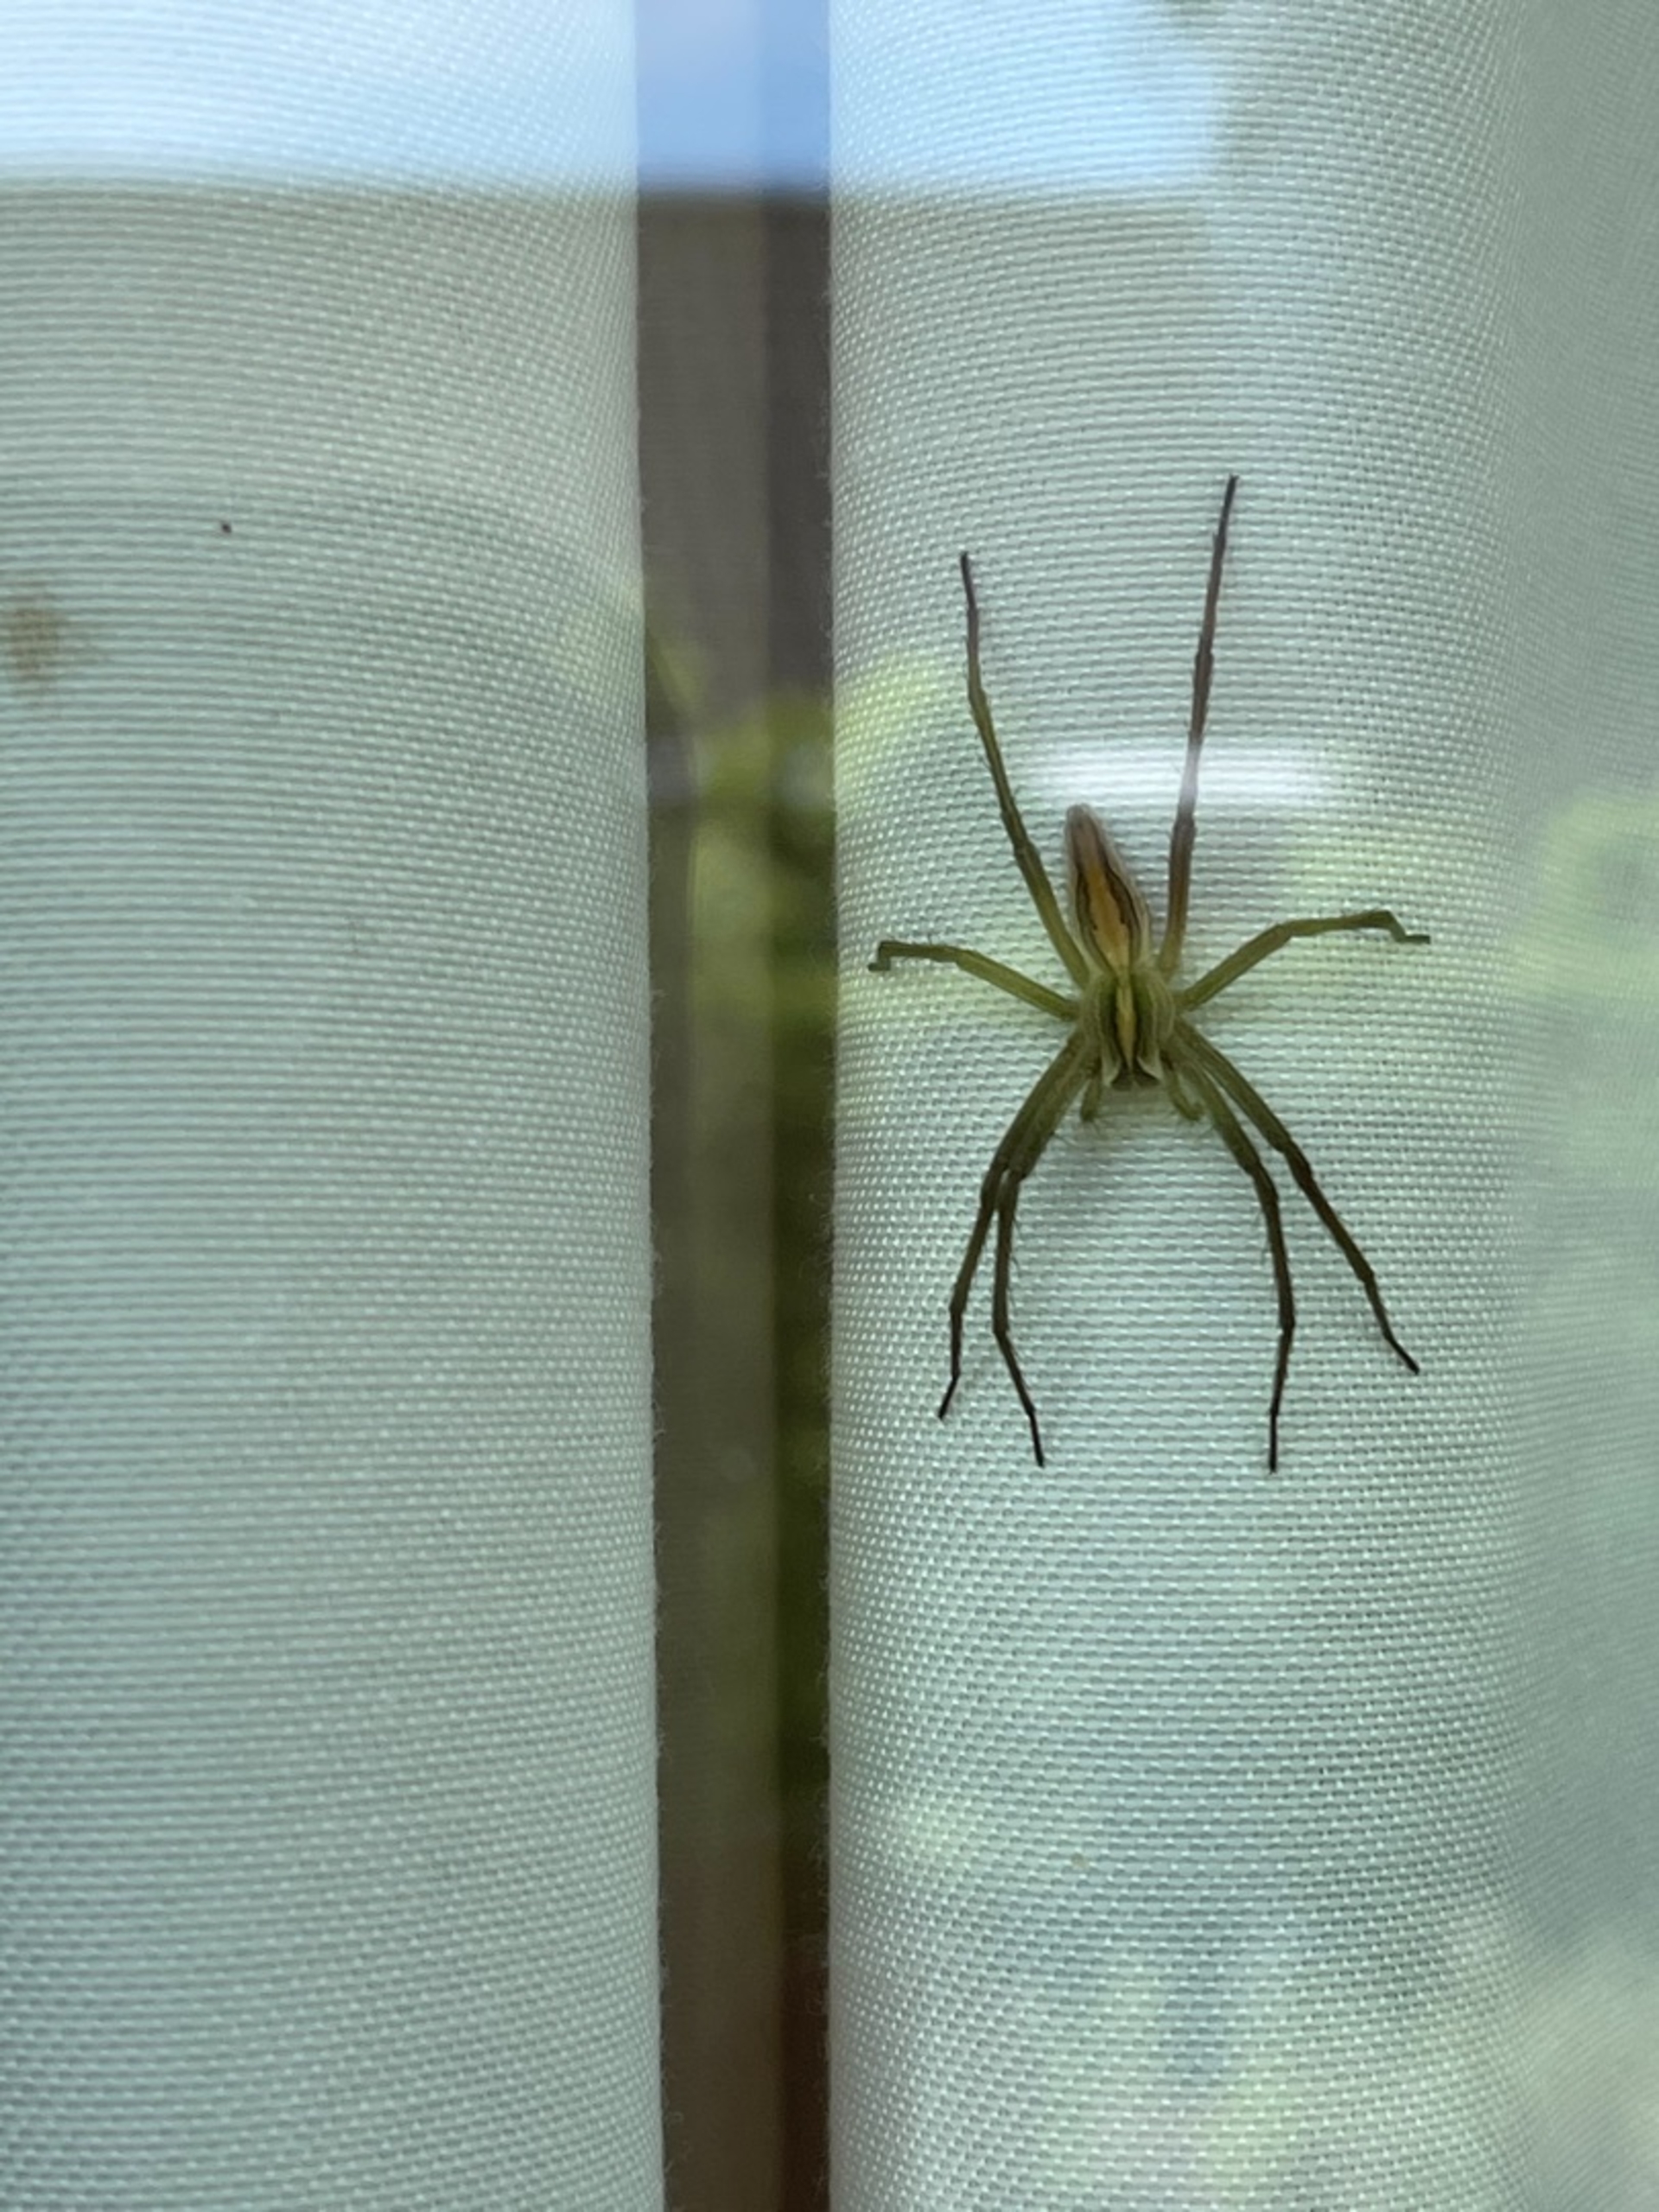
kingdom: Animalia
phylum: Arthropoda
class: Arachnida
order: Araneae
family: Pisauridae
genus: Pisaura
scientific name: Pisaura mirabilis
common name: Almindelig rovedderkop
